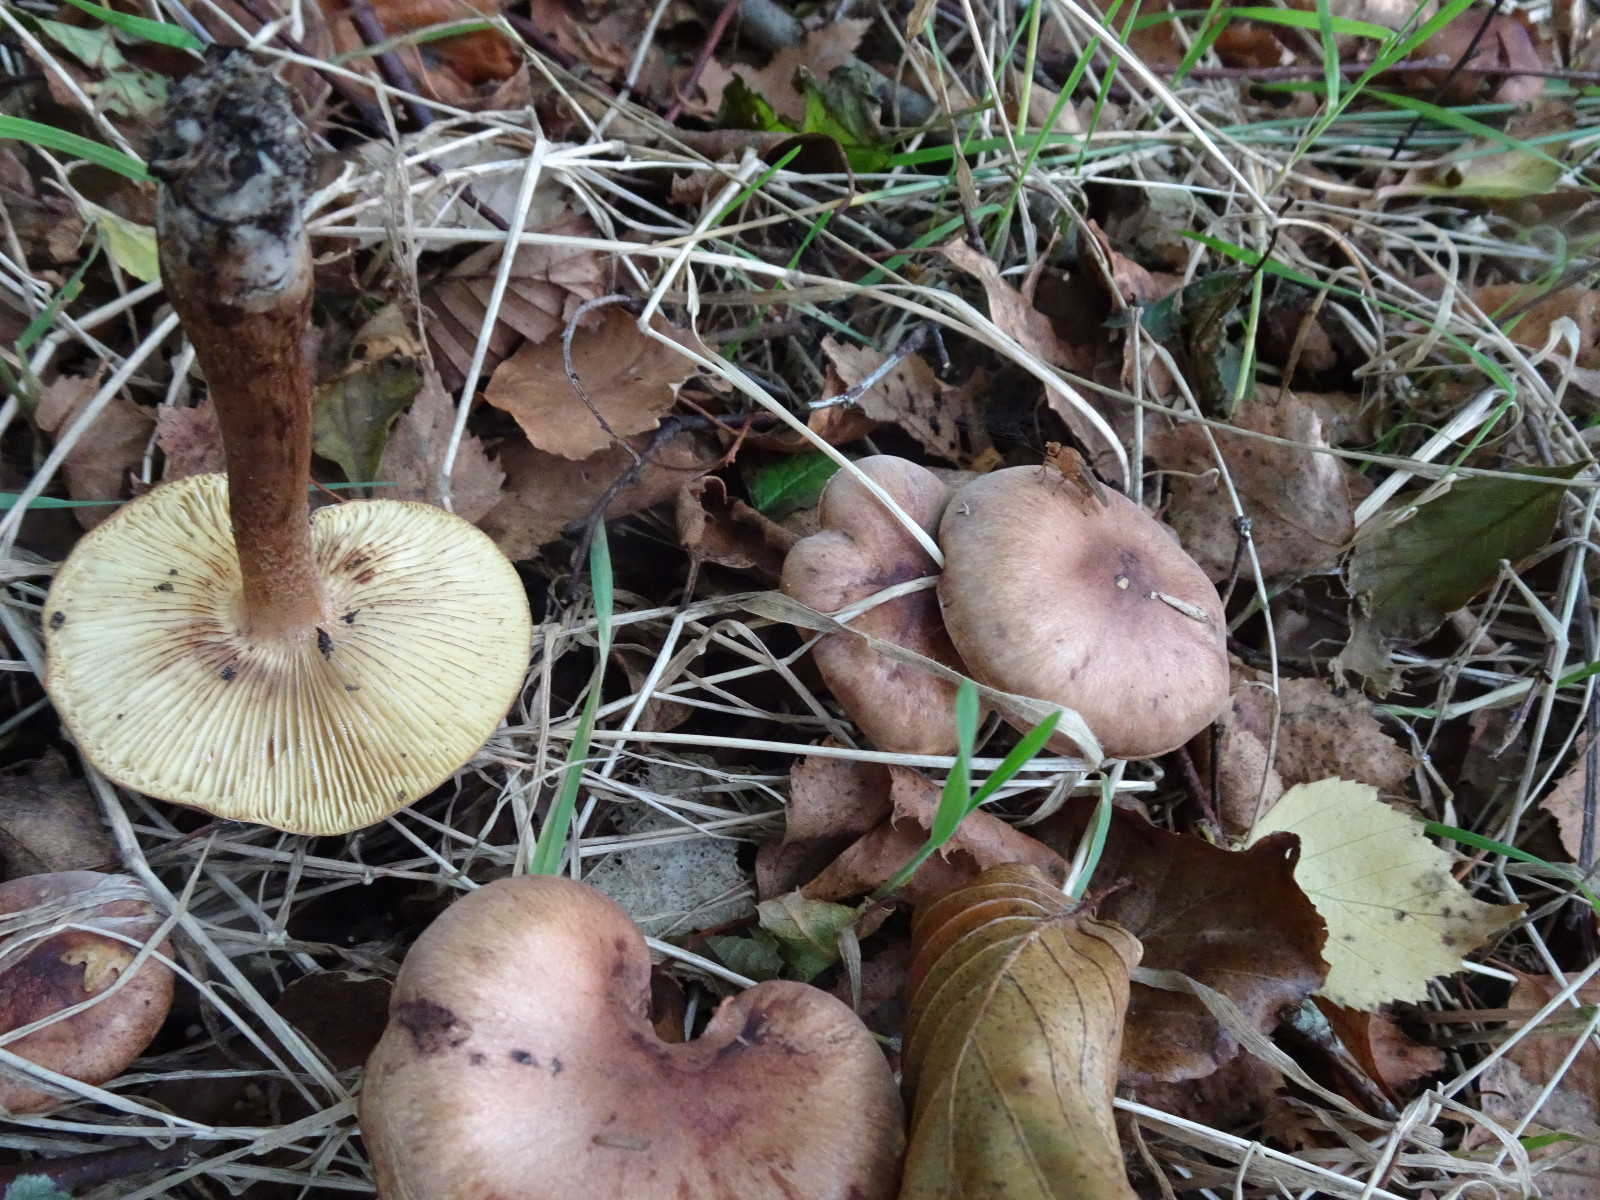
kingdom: Fungi
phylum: Basidiomycota
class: Agaricomycetes
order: Agaricales
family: Tricholomataceae
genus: Tricholoma
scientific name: Tricholoma fulvum
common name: birke-ridderhat
